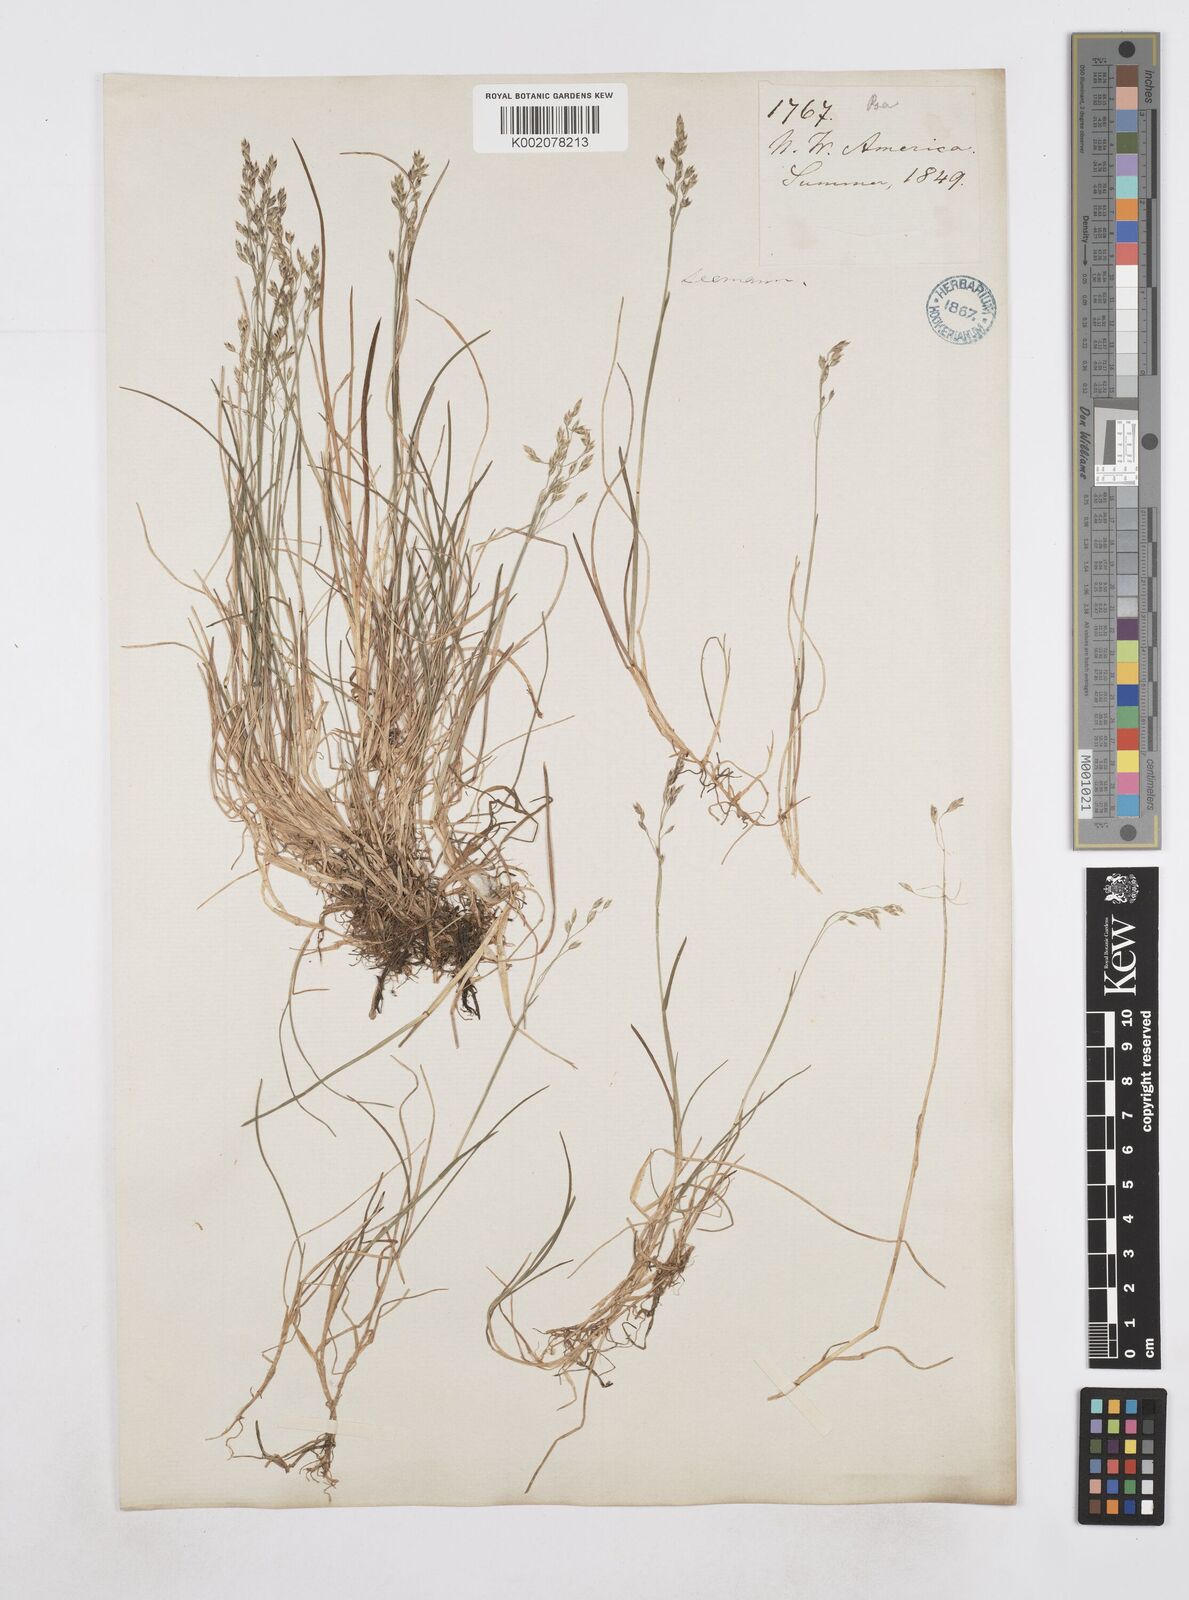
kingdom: Plantae
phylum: Tracheophyta
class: Liliopsida
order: Poales
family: Poaceae
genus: Poa
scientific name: Poa
